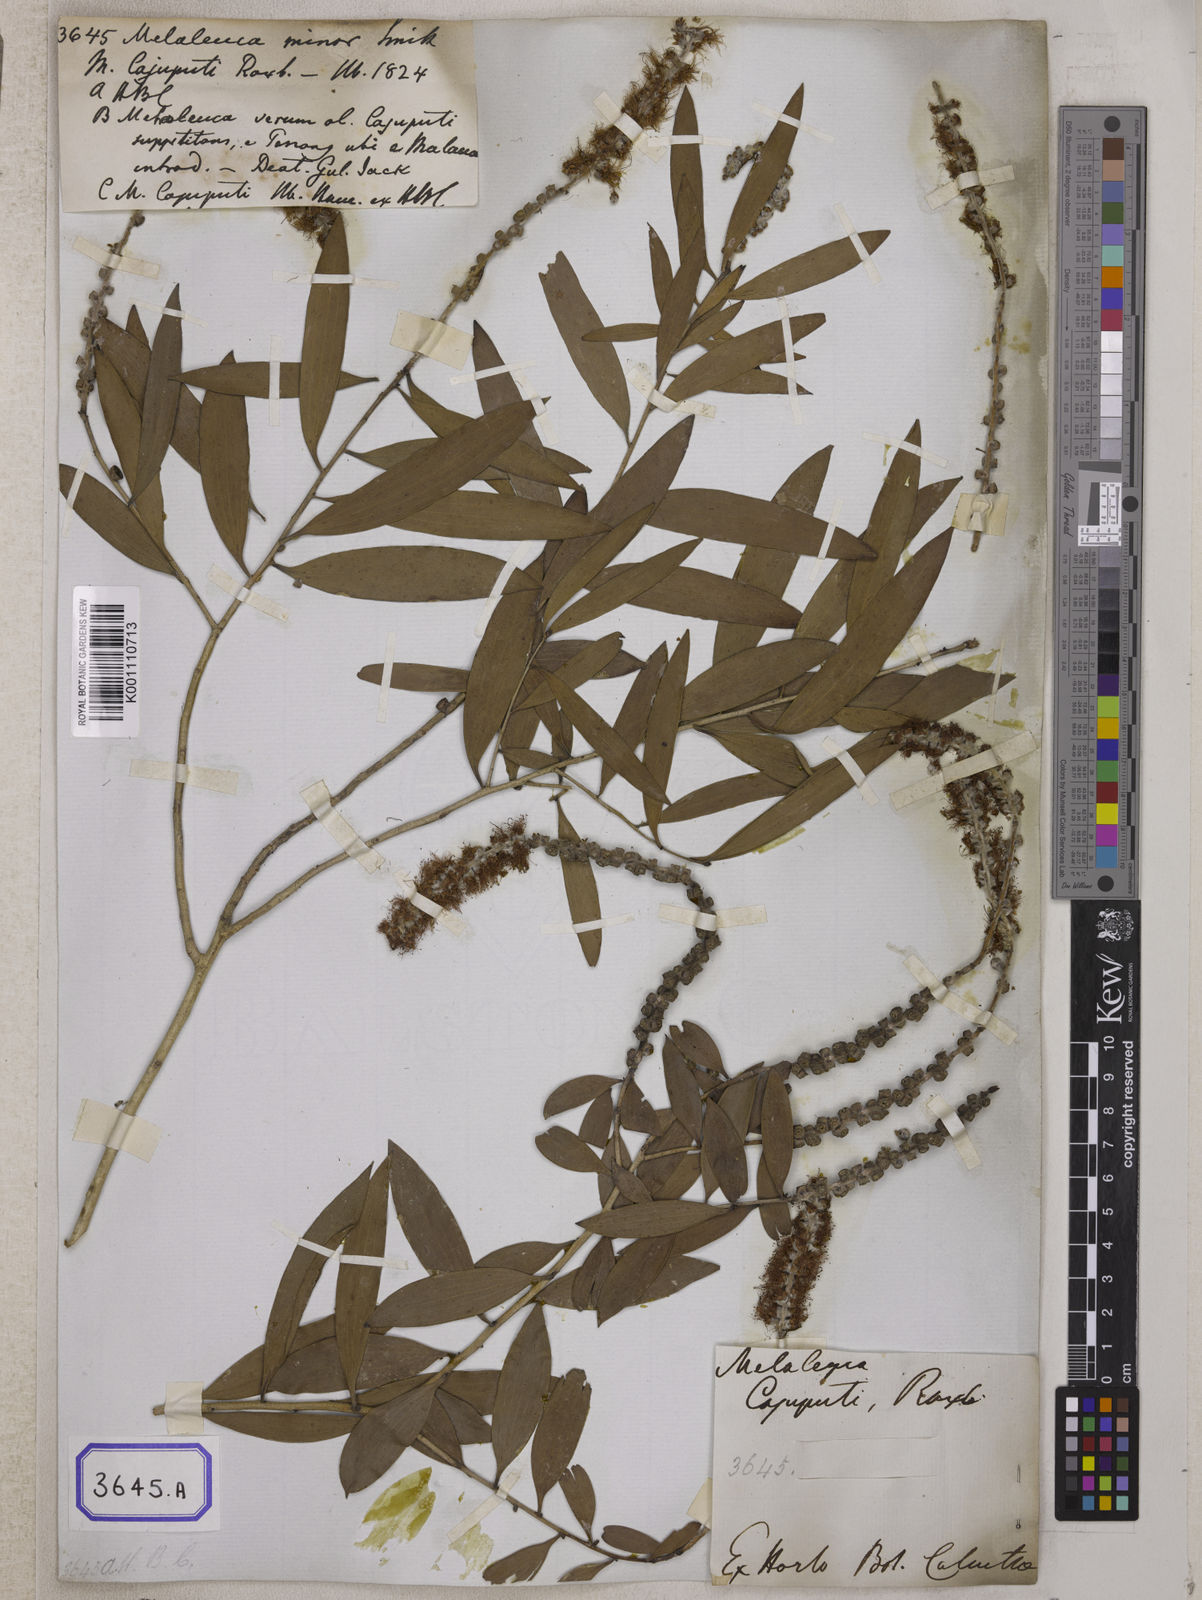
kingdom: Plantae
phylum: Tracheophyta
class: Magnoliopsida
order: Myrtales
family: Myrtaceae
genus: Melaleuca
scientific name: Melaleuca cajuputi
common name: Cajuput
